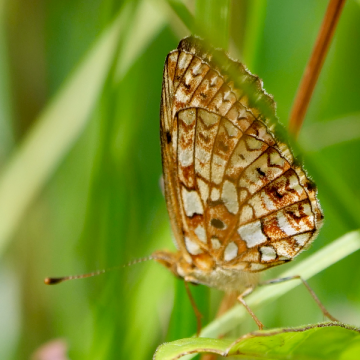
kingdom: Animalia
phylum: Arthropoda
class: Insecta
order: Lepidoptera
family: Nymphalidae
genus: Boloria
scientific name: Boloria selene
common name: Silver-bordered Fritillary
